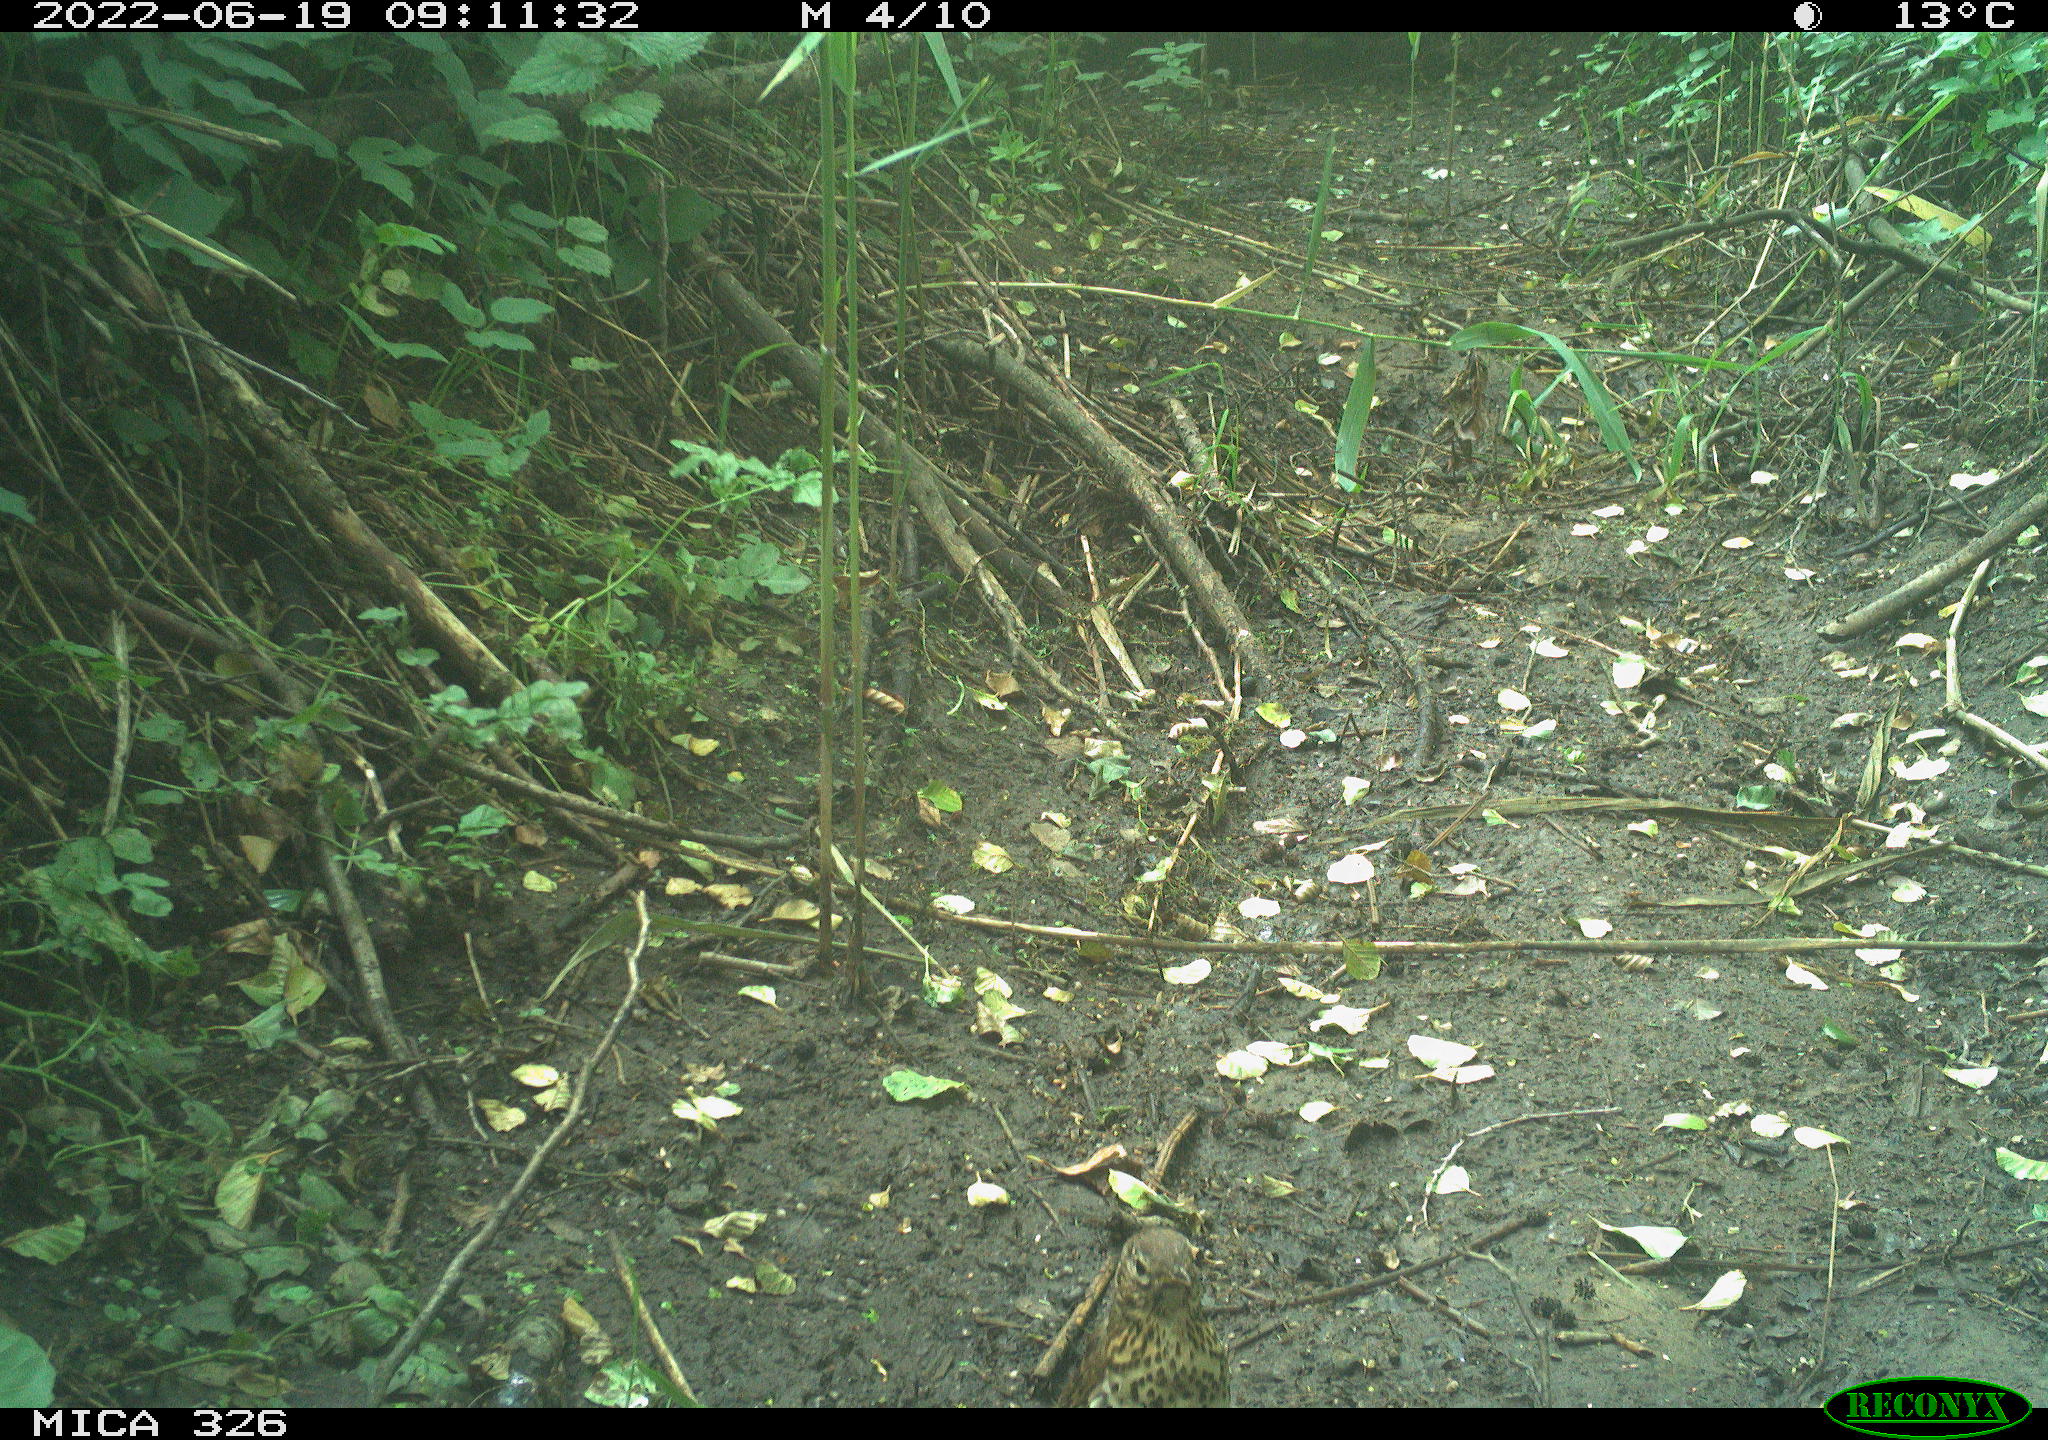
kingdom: Animalia
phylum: Chordata
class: Aves
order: Passeriformes
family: Turdidae
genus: Turdus
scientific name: Turdus philomelos
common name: Song thrush
